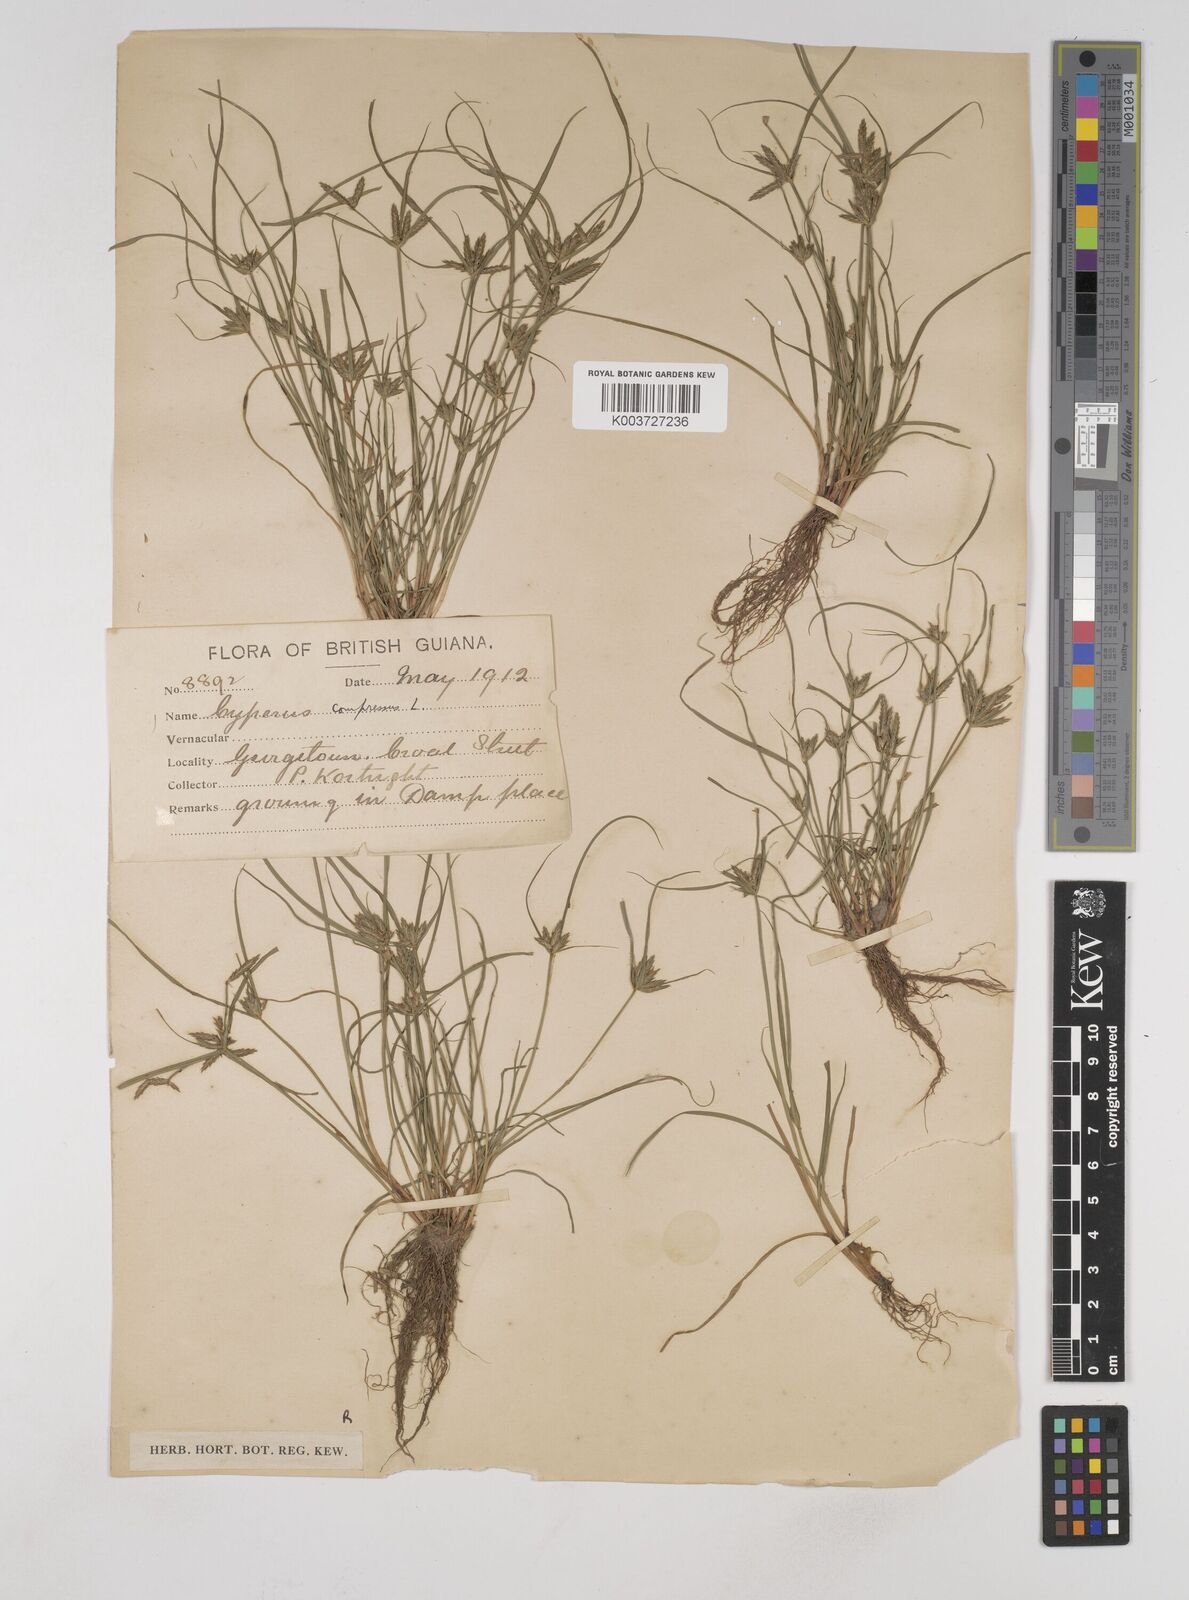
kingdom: Plantae
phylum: Tracheophyta
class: Liliopsida
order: Poales
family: Cyperaceae
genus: Cyperus
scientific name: Cyperus compressus
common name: Poorland flatsedge
